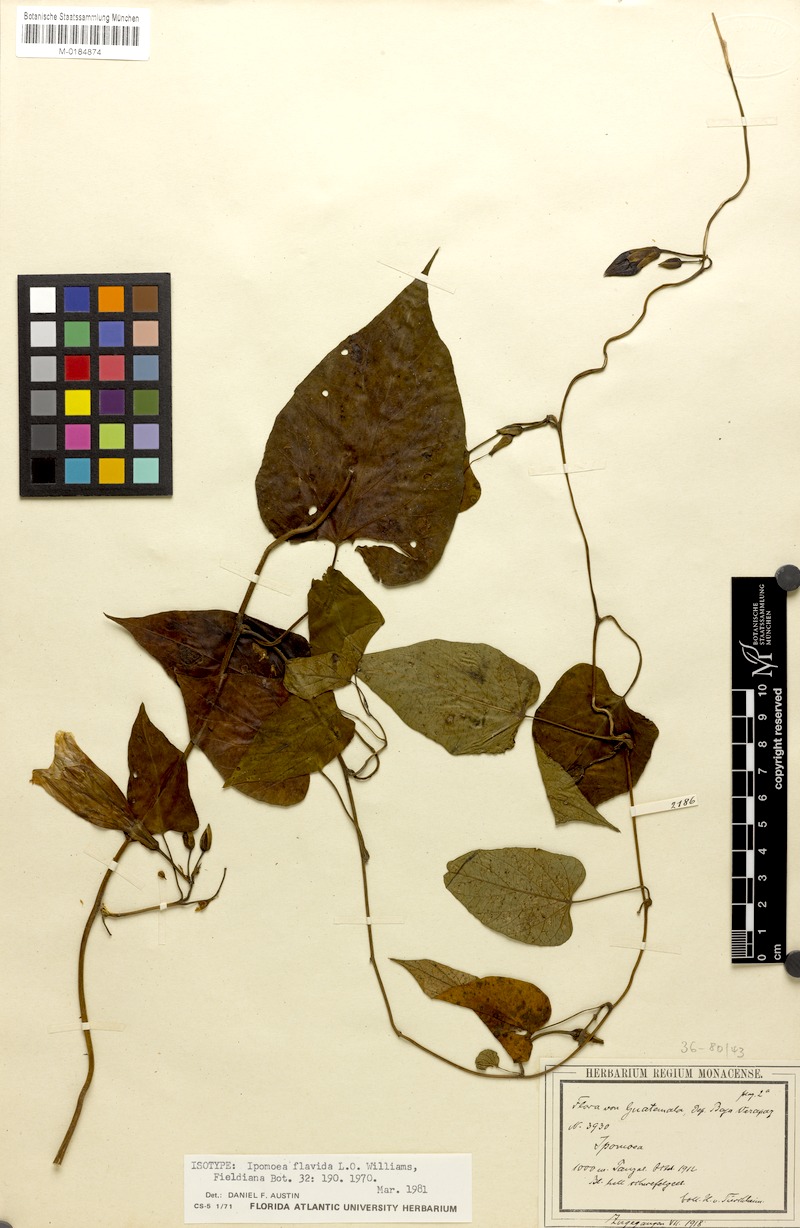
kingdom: Plantae
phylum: Tracheophyta
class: Magnoliopsida
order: Solanales
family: Convolvulaceae
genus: Ipomoea
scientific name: Ipomoea lindenii
